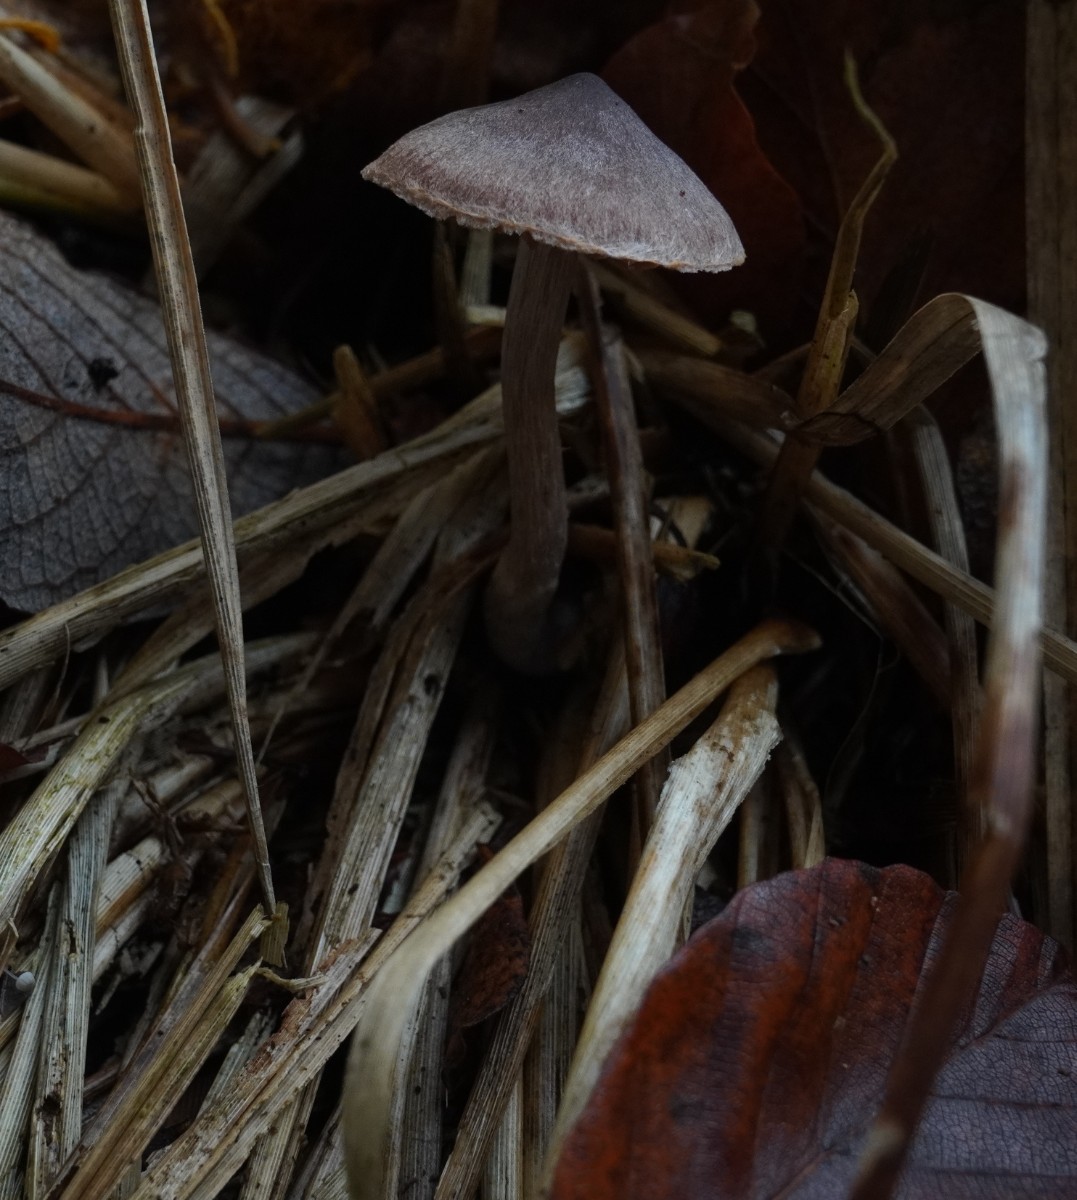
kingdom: Fungi
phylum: Basidiomycota
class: Agaricomycetes
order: Agaricales
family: Cortinariaceae
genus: Cortinarius
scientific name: Cortinarius
